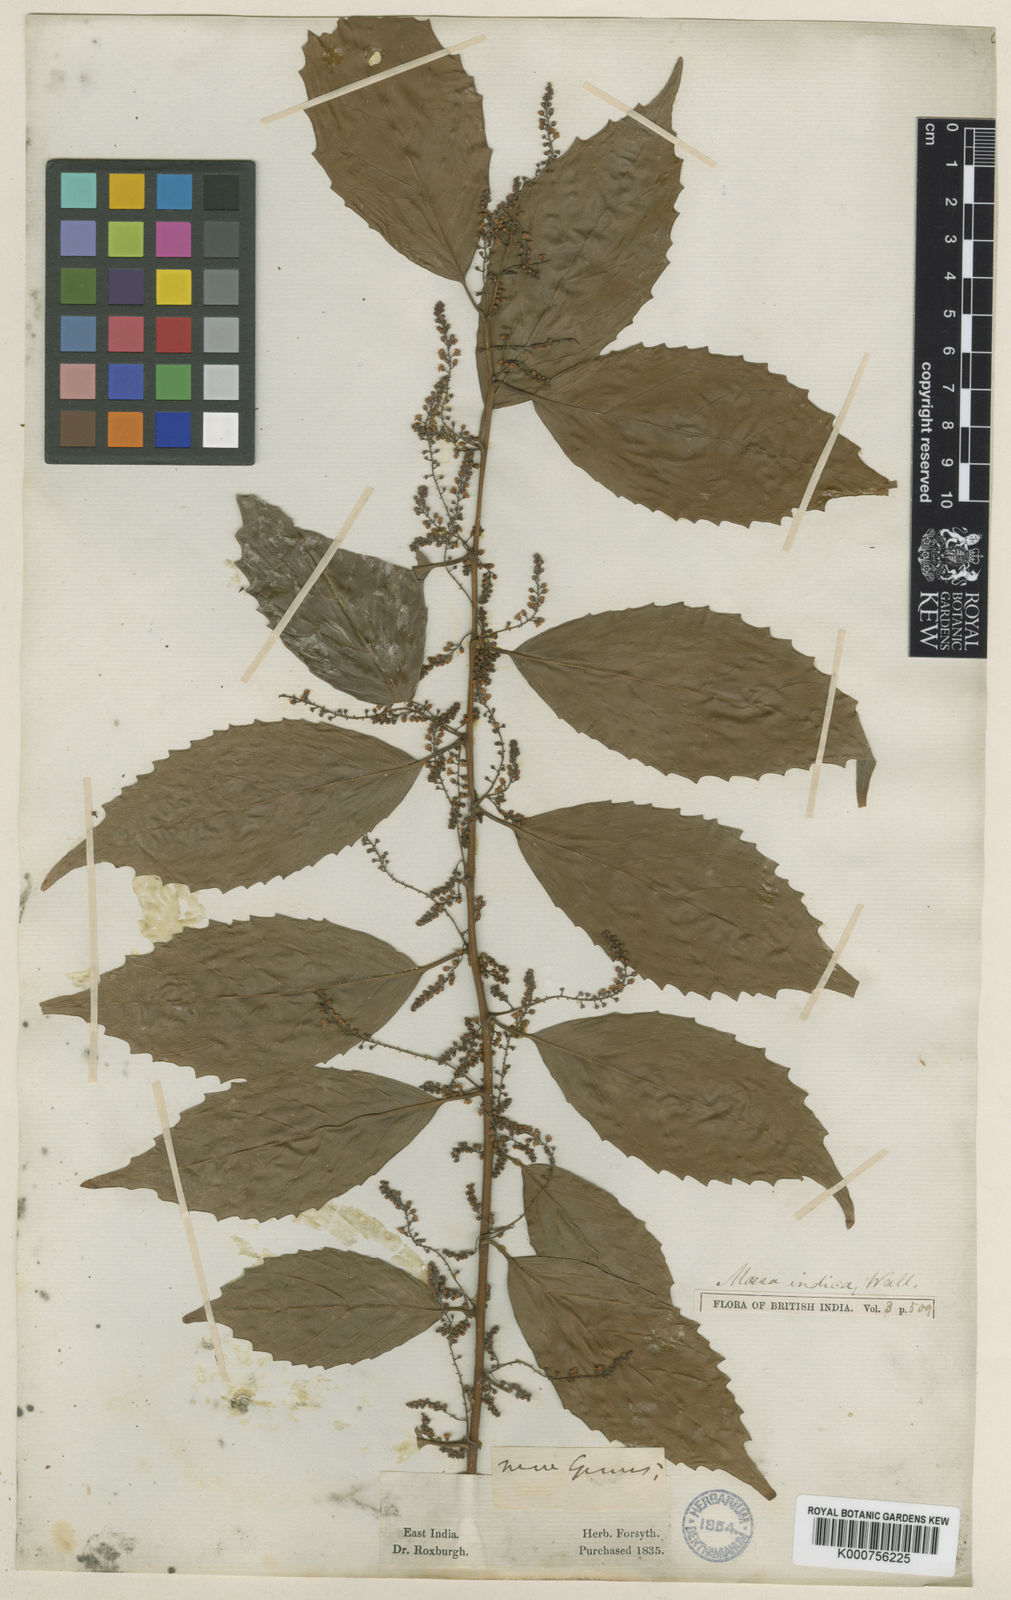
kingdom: Plantae
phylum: Tracheophyta
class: Magnoliopsida
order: Ericales
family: Primulaceae
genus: Maesa
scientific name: Maesa
